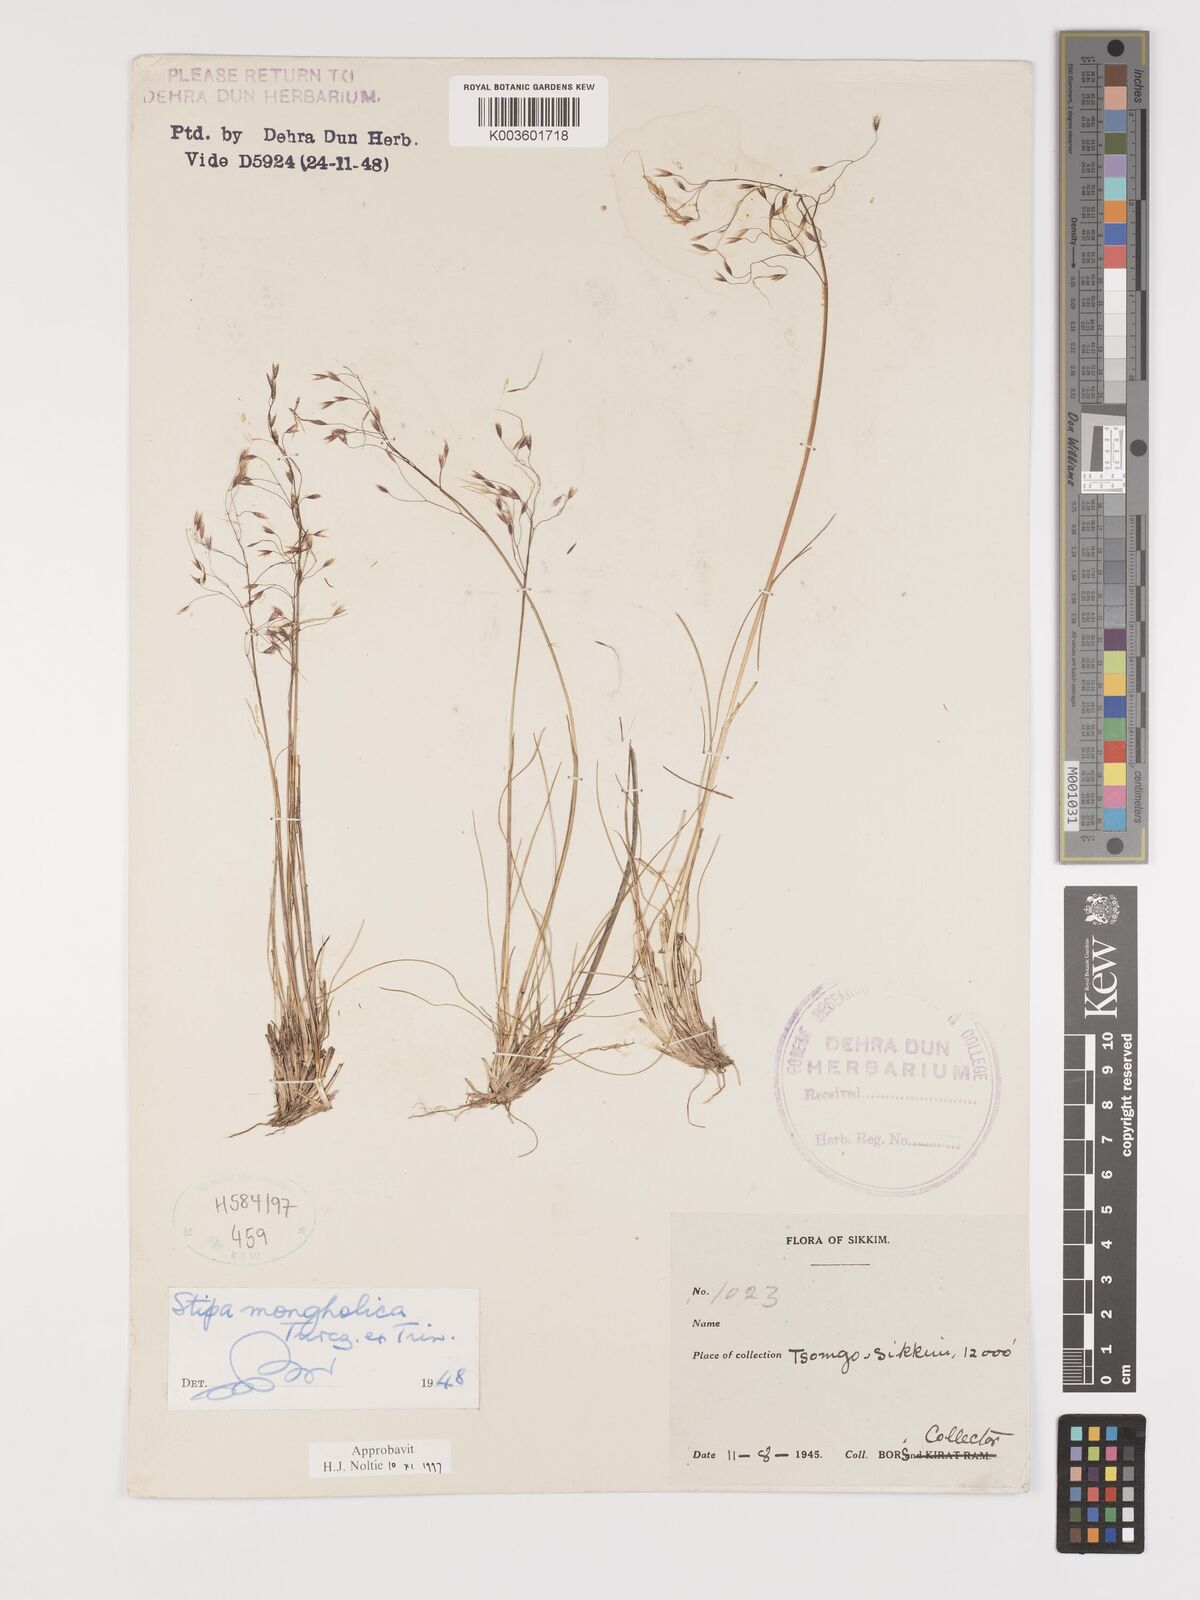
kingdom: Plantae
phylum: Tracheophyta
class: Liliopsida
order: Poales
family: Poaceae
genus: Ptilagrostis
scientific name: Ptilagrostis mongholica
